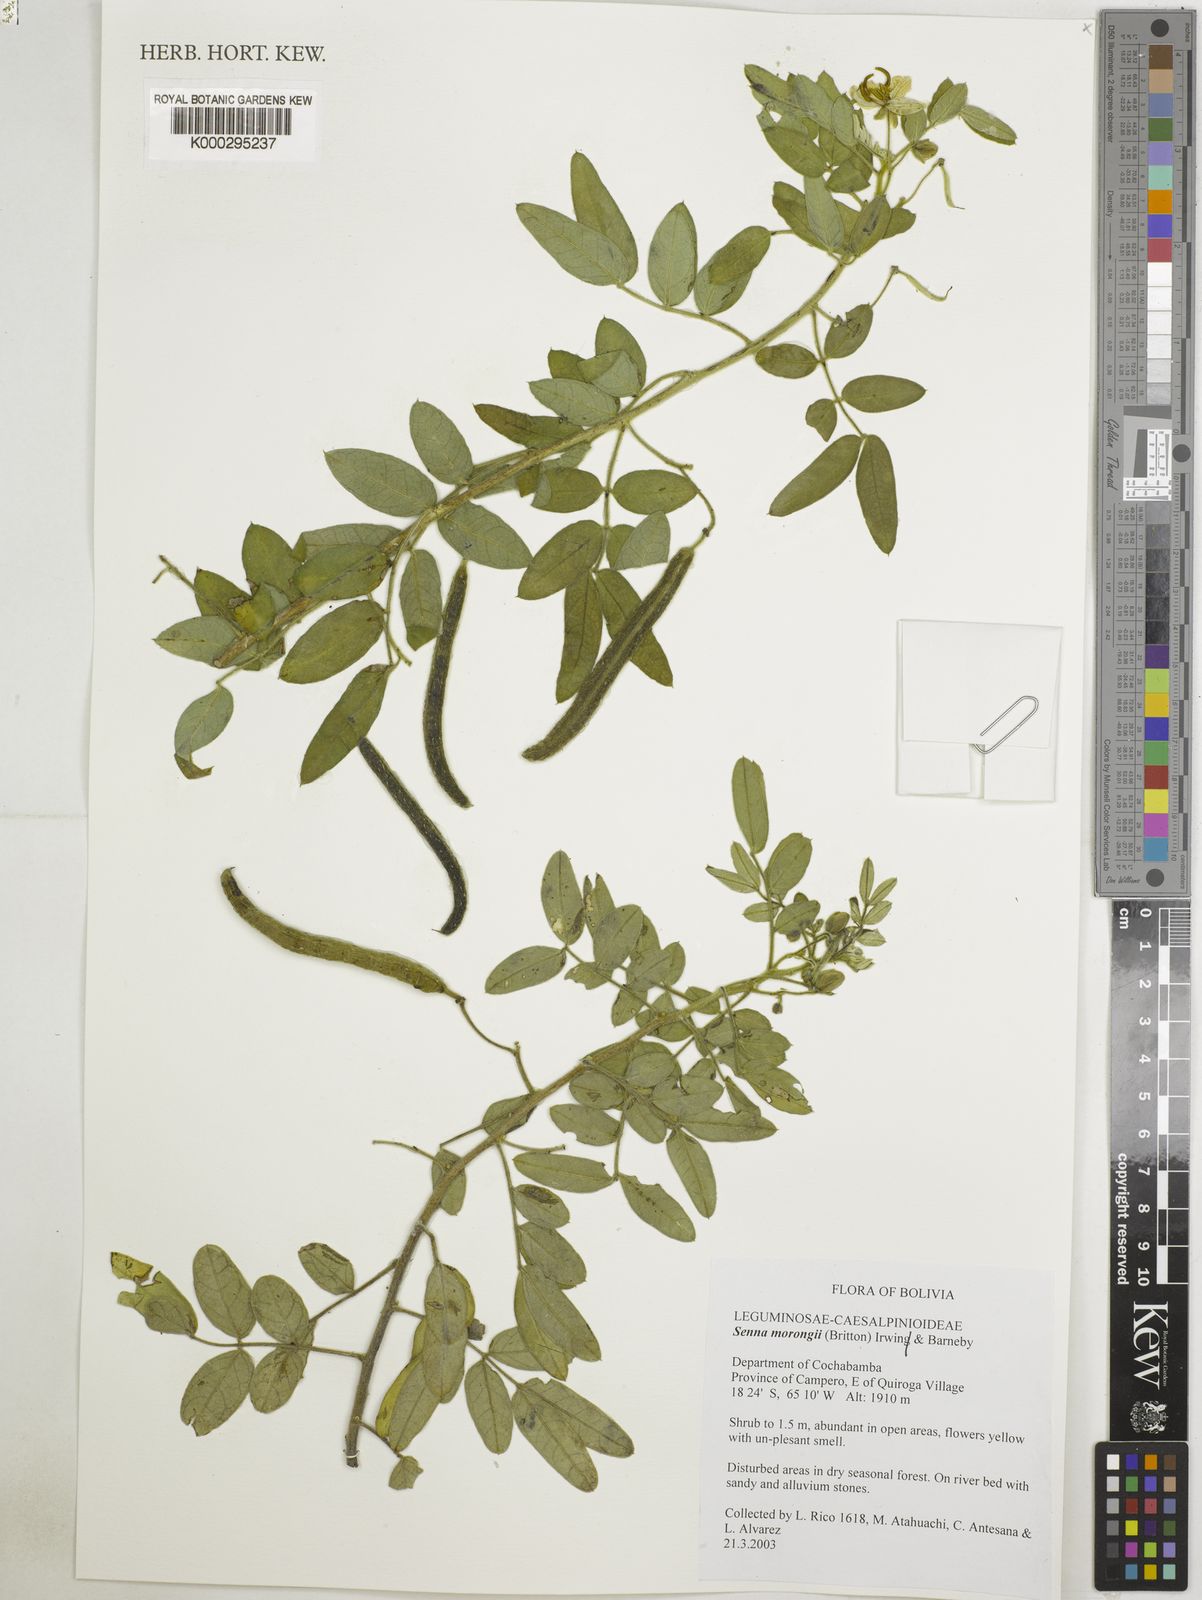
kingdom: Plantae
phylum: Tracheophyta
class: Magnoliopsida
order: Fabales
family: Fabaceae
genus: Senna
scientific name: Senna morongii
